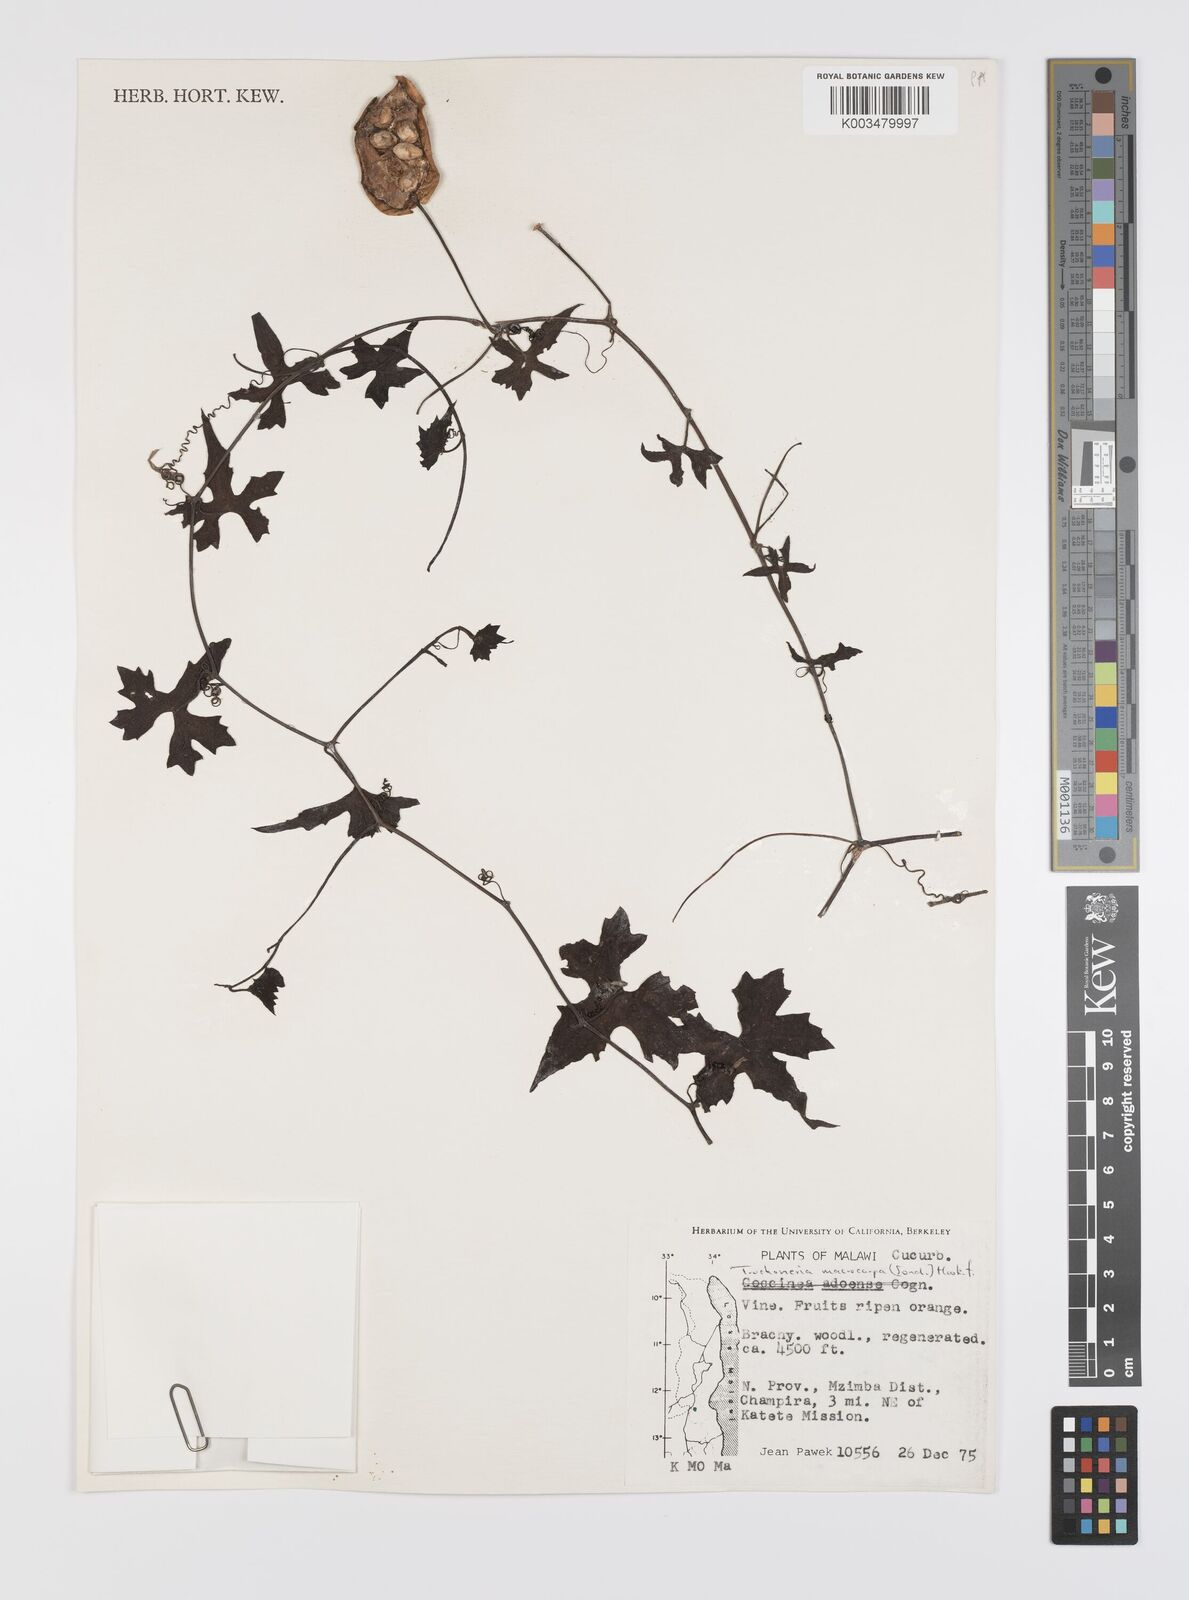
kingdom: Plantae
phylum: Tracheophyta
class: Magnoliopsida
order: Cucurbitales
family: Cucurbitaceae
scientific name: Cucurbitaceae
